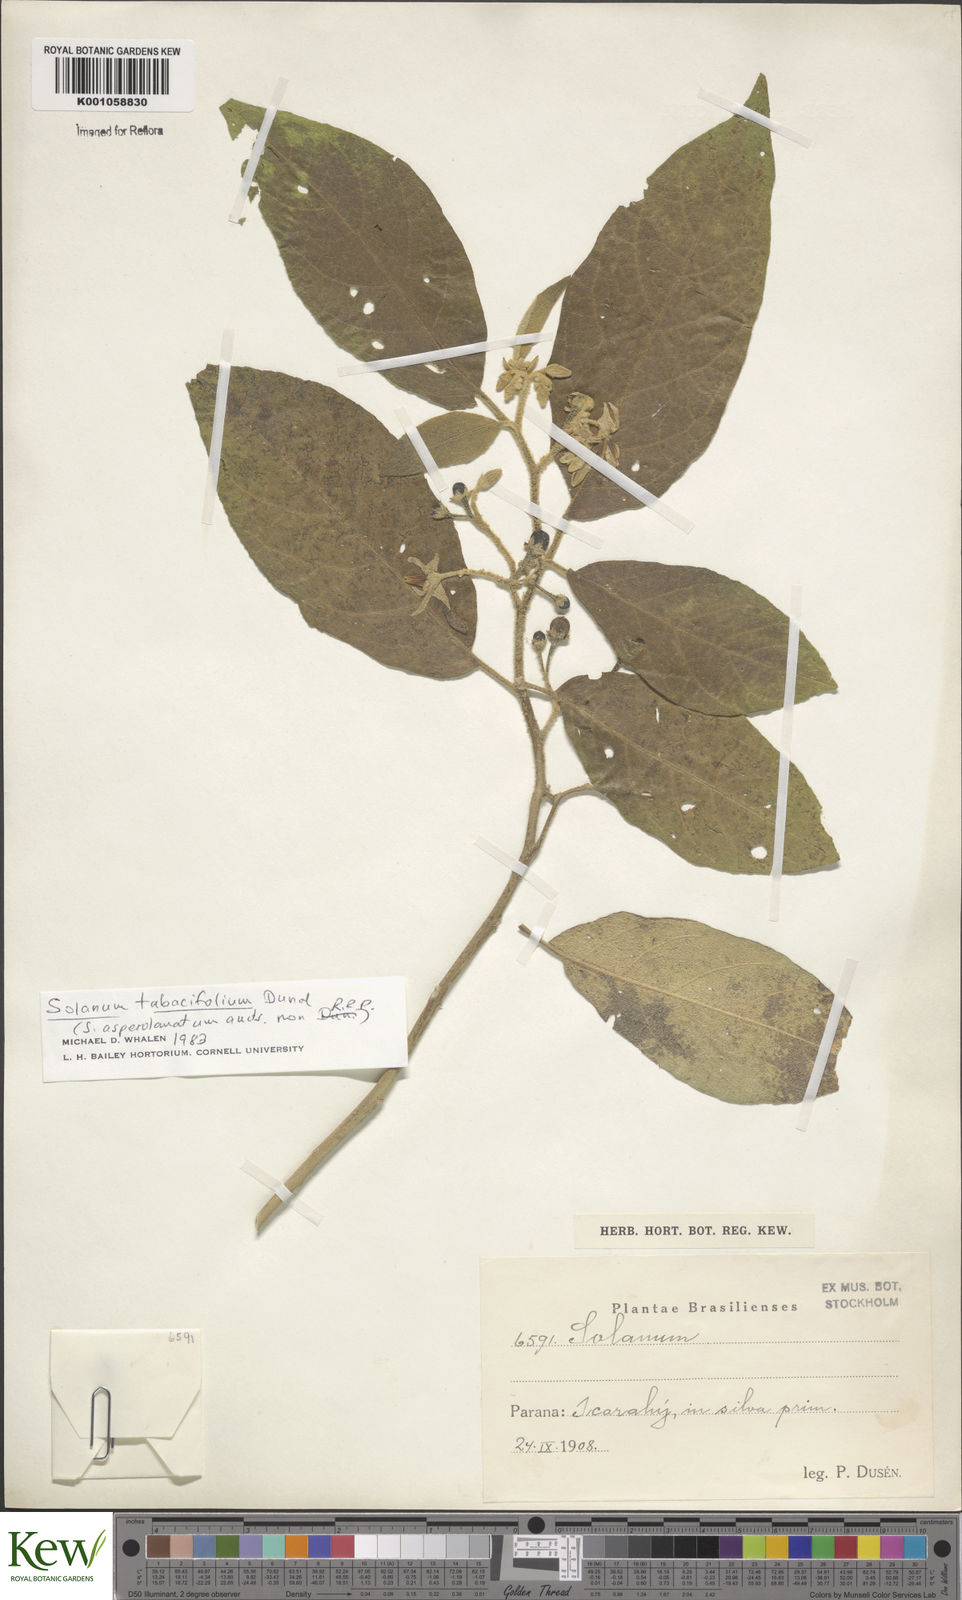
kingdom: Plantae
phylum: Tracheophyta
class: Magnoliopsida
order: Solanales
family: Solanaceae
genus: Solanum
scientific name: Solanum scuticum
